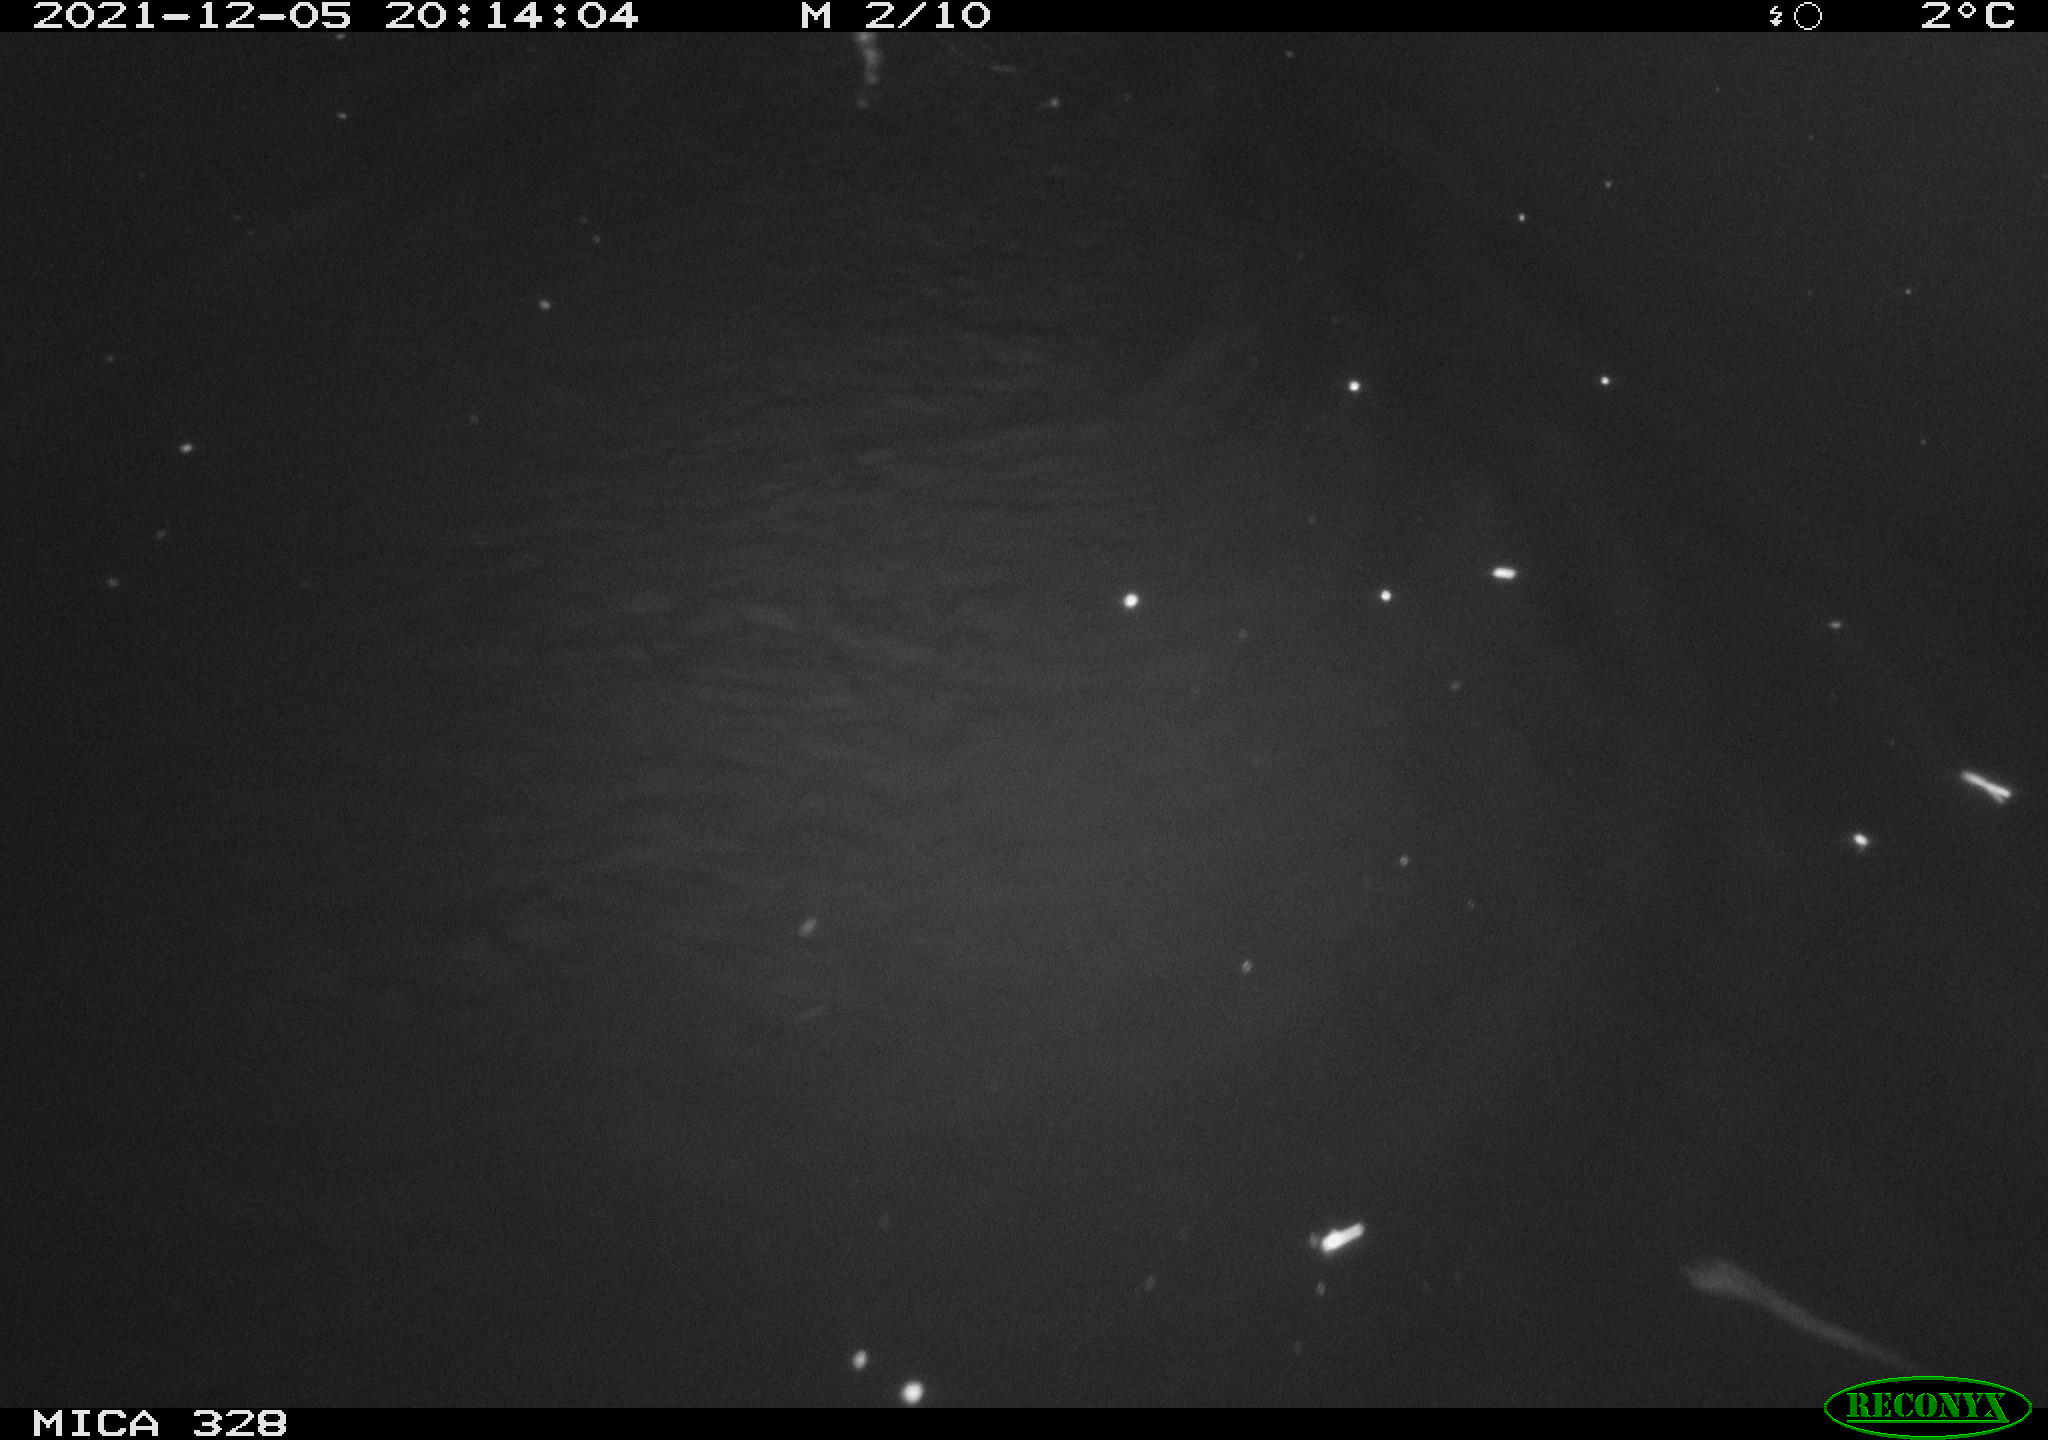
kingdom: Animalia
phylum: Chordata
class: Mammalia
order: Rodentia
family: Cricetidae
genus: Ondatra
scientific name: Ondatra zibethicus
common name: Muskrat
